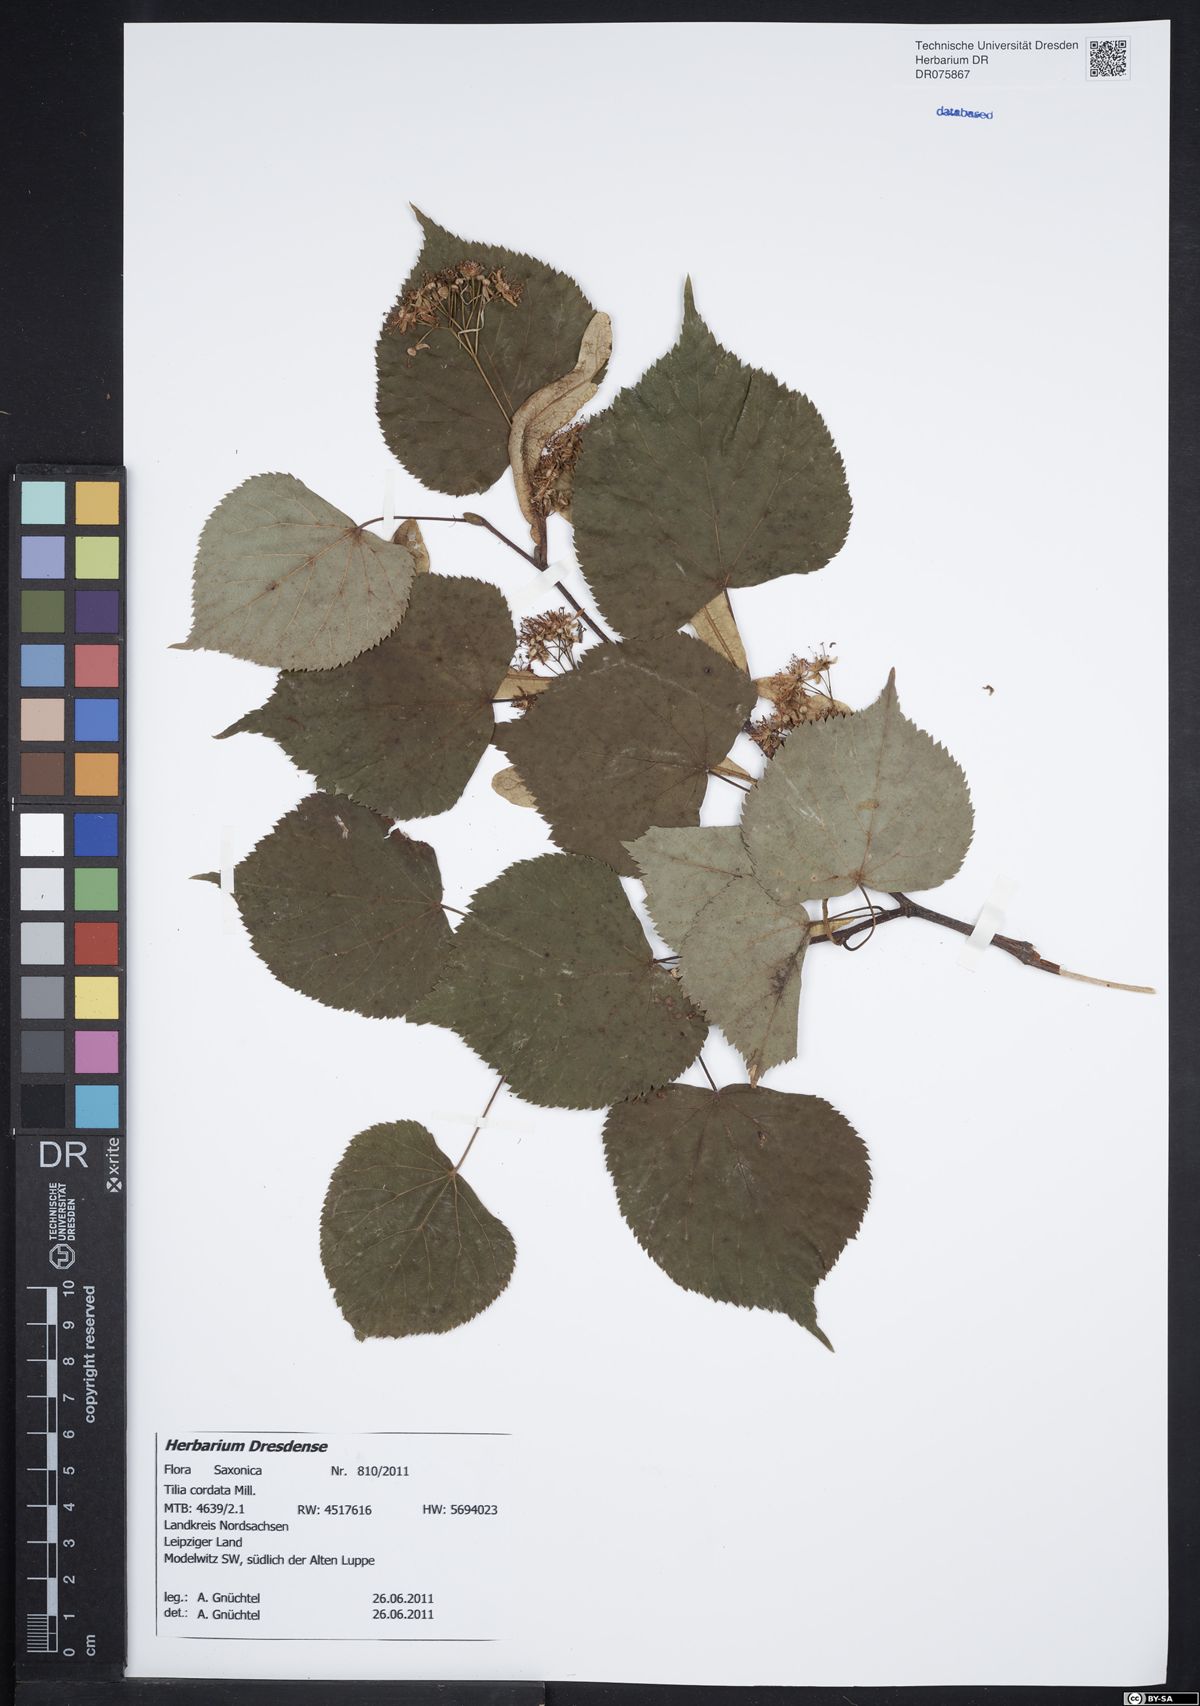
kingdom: Plantae
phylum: Tracheophyta
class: Magnoliopsida
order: Malvales
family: Malvaceae
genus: Tilia
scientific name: Tilia cordata
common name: Small-leaved lime
